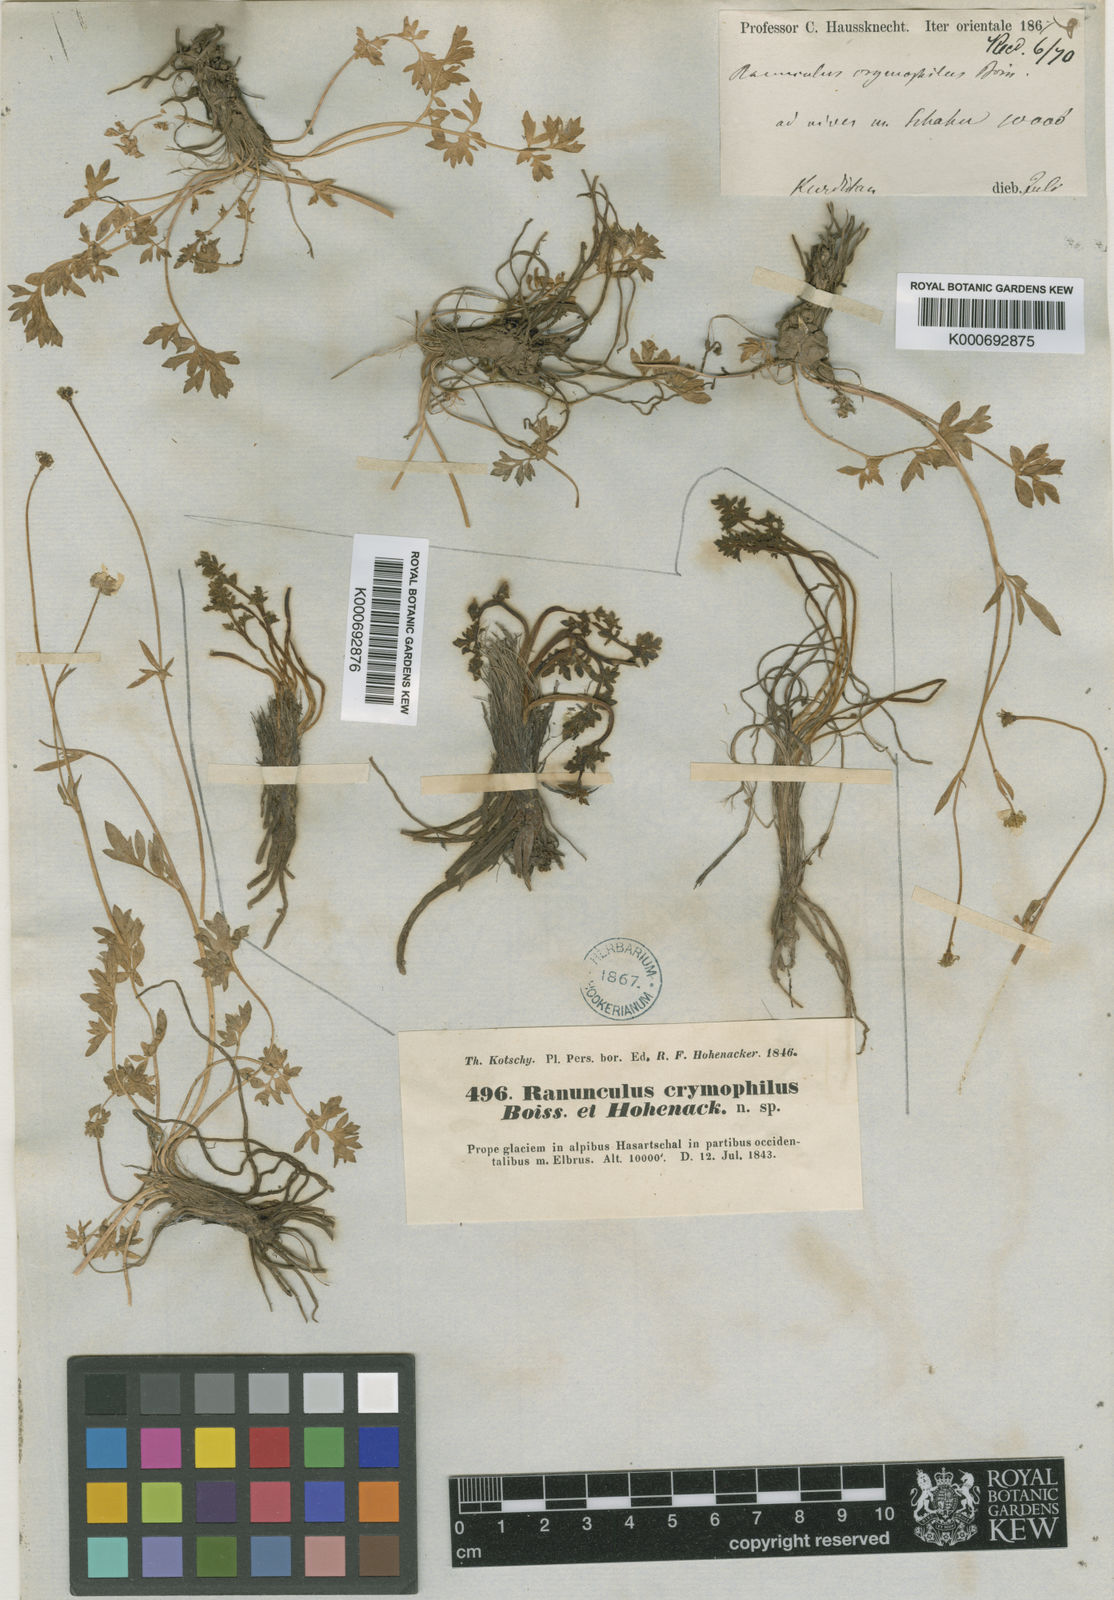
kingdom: Plantae
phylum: Tracheophyta
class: Magnoliopsida
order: Ranunculales
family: Ranunculaceae
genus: Ranunculus
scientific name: Ranunculus crymophilus
